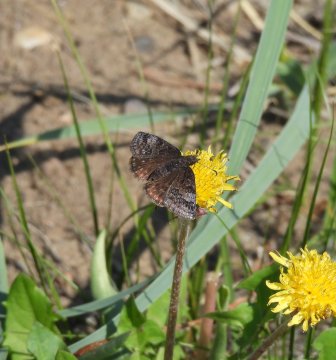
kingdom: Animalia
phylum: Arthropoda
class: Insecta
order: Lepidoptera
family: Hesperiidae
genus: Erynnis
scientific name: Erynnis icelus
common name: Dreamy Duskywing
